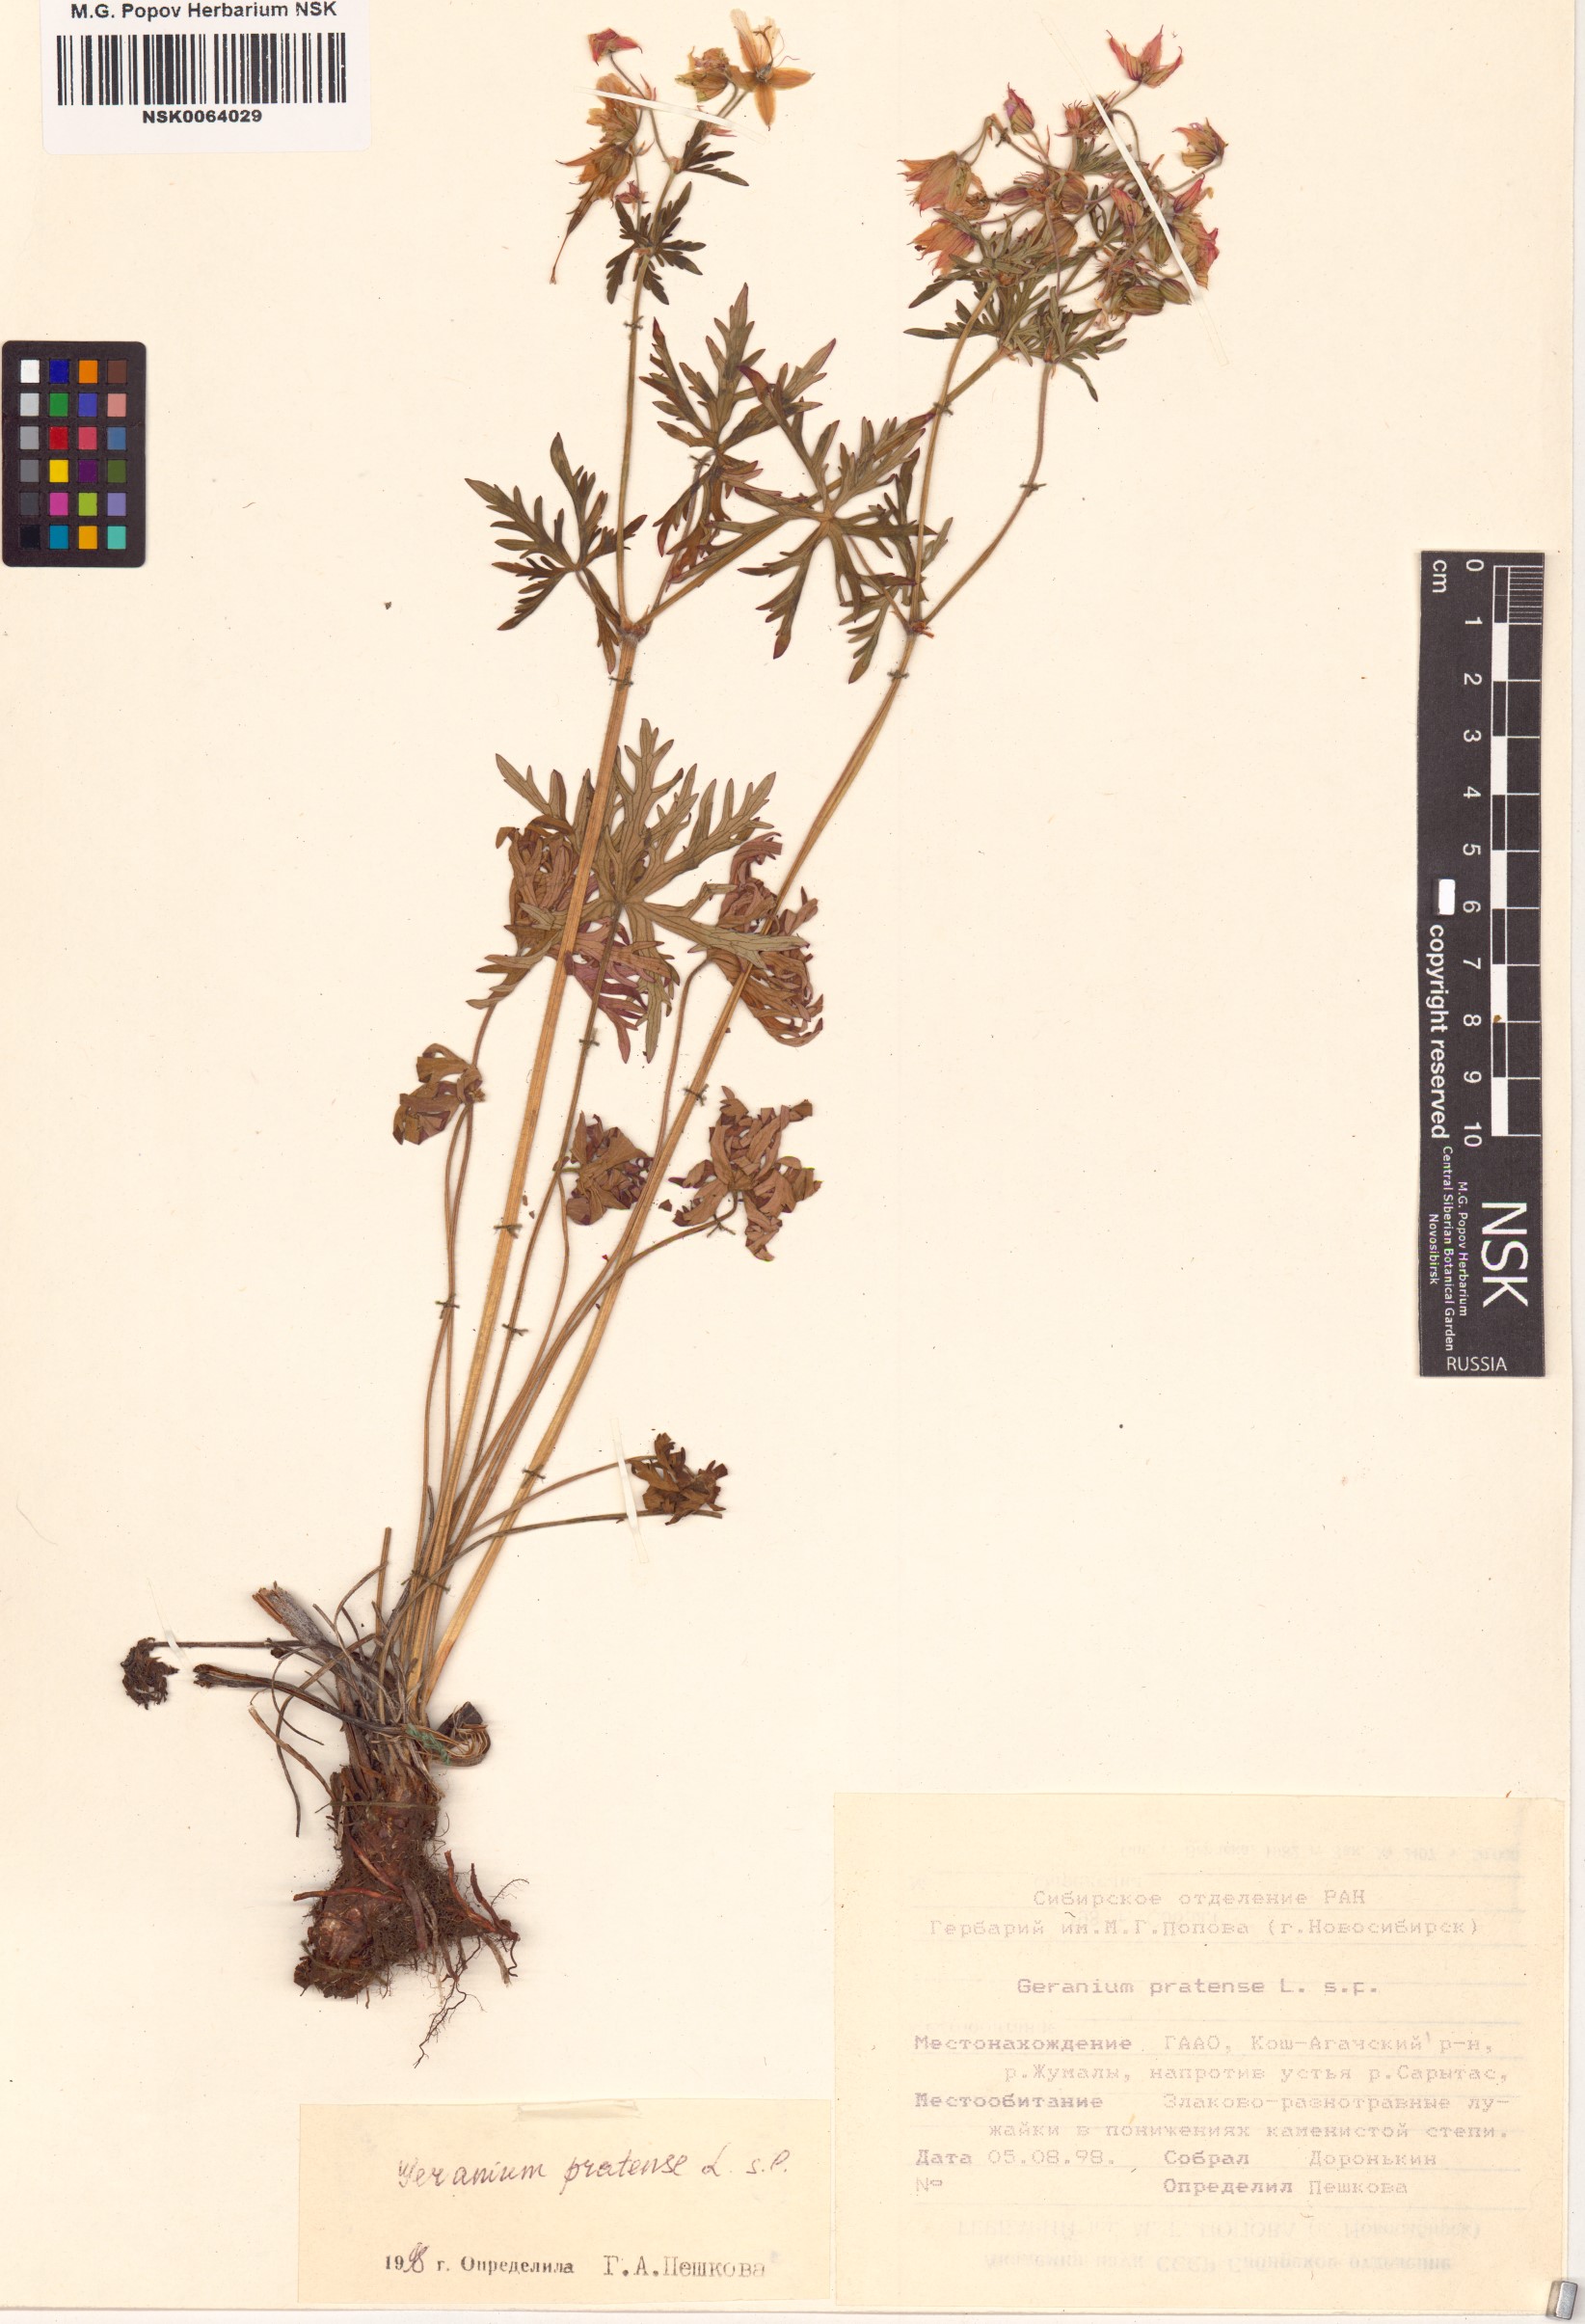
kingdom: Plantae
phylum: Tracheophyta
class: Magnoliopsida
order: Geraniales
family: Geraniaceae
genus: Geranium
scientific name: Geranium pratense
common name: Meadow crane's-bill
